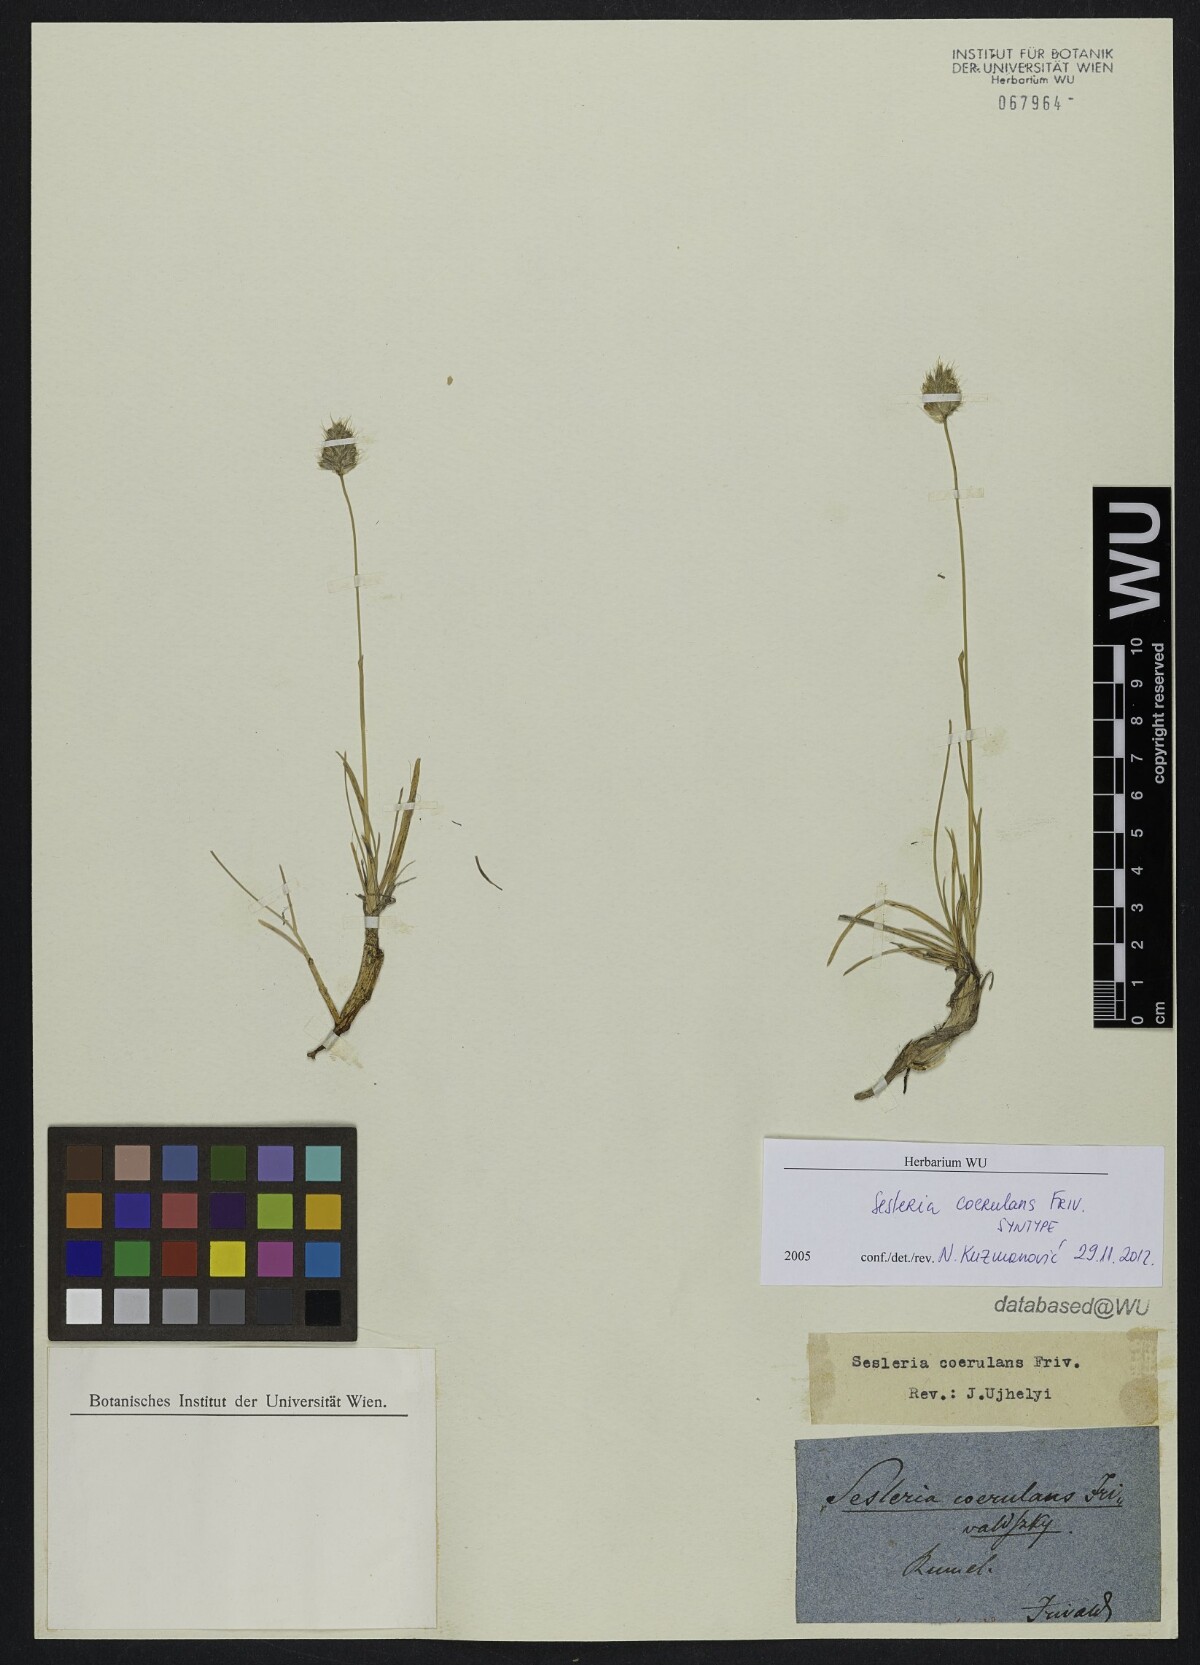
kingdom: Plantae
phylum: Tracheophyta
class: Liliopsida
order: Poales
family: Poaceae
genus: Sesleria
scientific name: Sesleria coerulans
